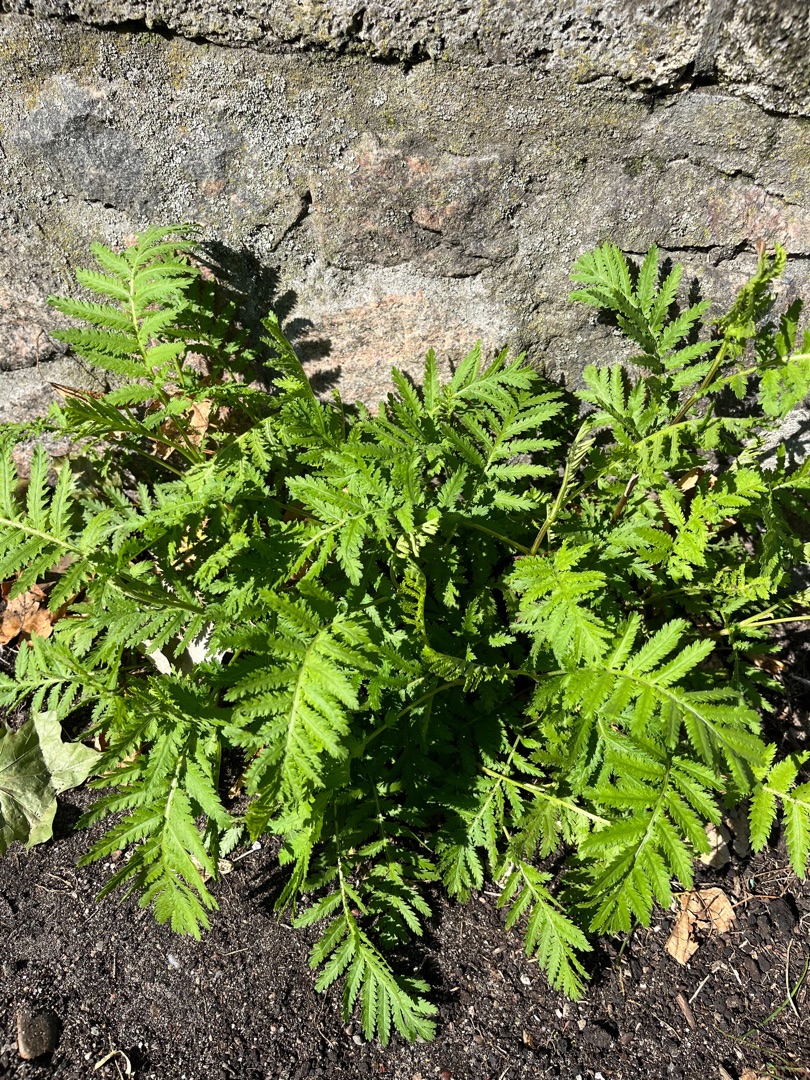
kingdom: Plantae
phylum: Tracheophyta
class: Magnoliopsida
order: Asterales
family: Asteraceae
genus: Tanacetum
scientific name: Tanacetum vulgare
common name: Rejnfan
